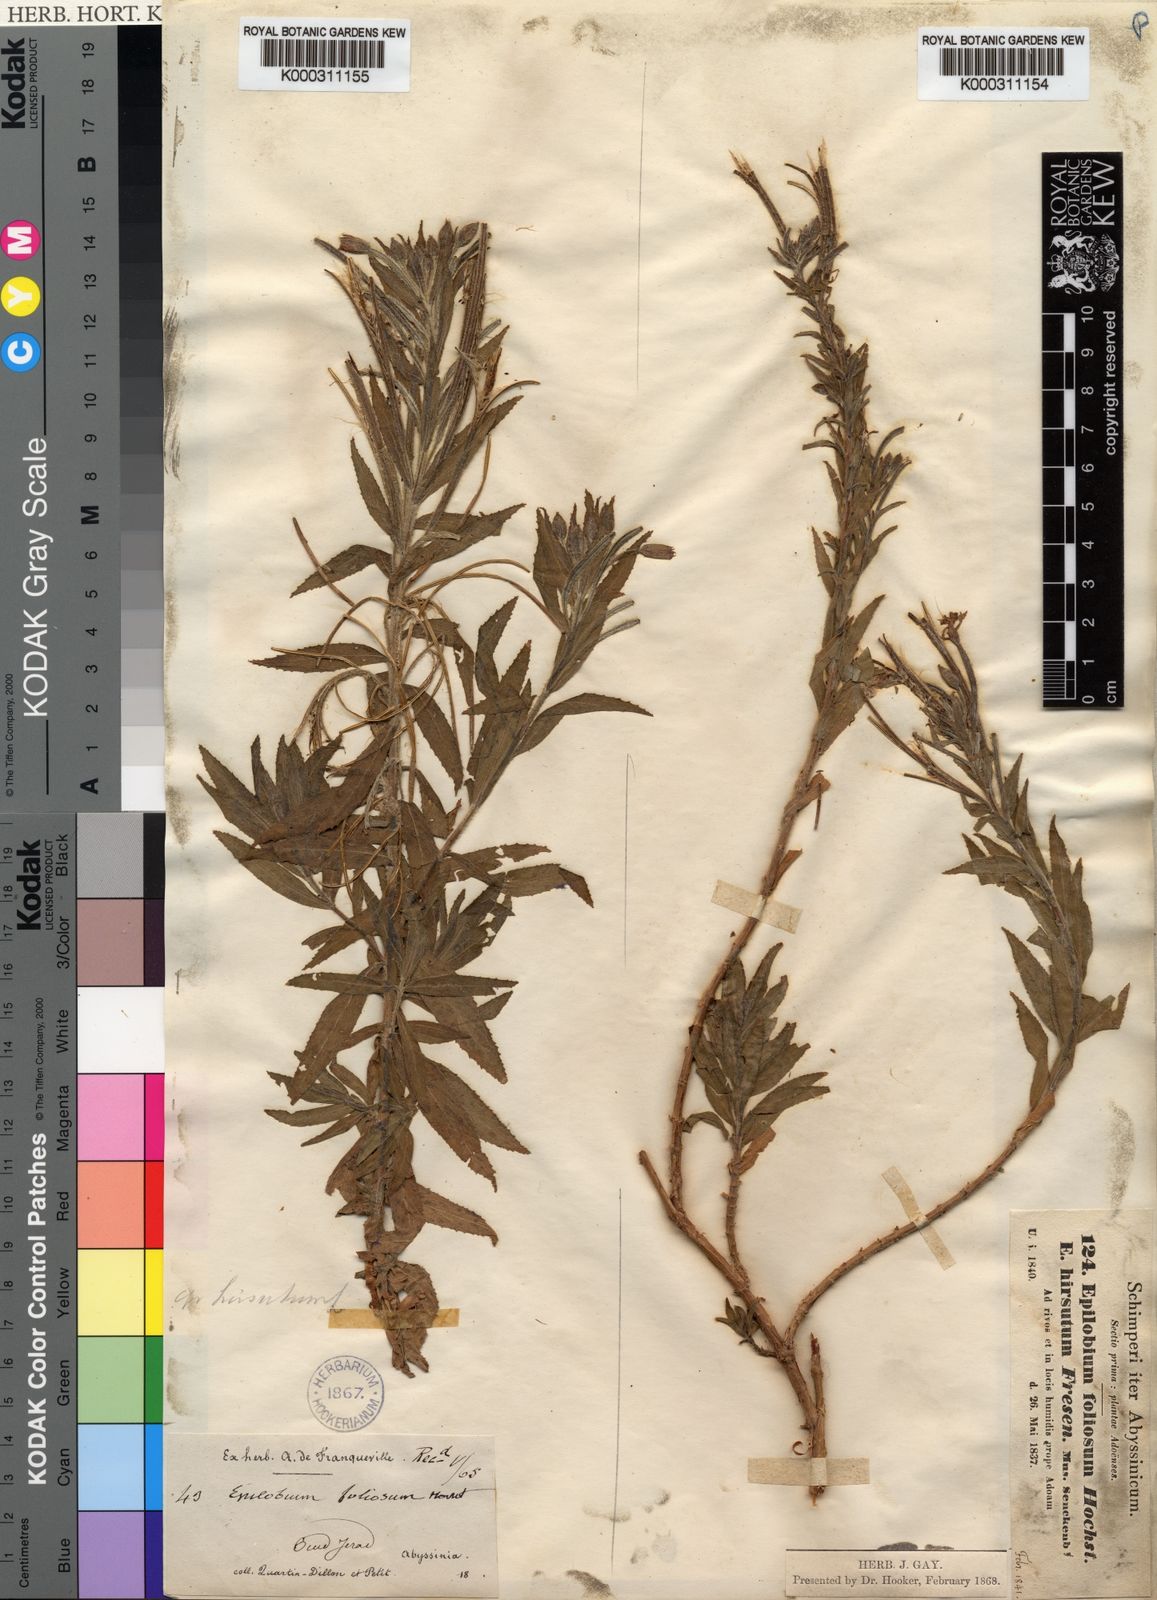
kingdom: Plantae
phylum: Tracheophyta
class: Magnoliopsida
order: Myrtales
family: Onagraceae
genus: Epilobium
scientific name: Epilobium hirsutum
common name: Great willowherb
